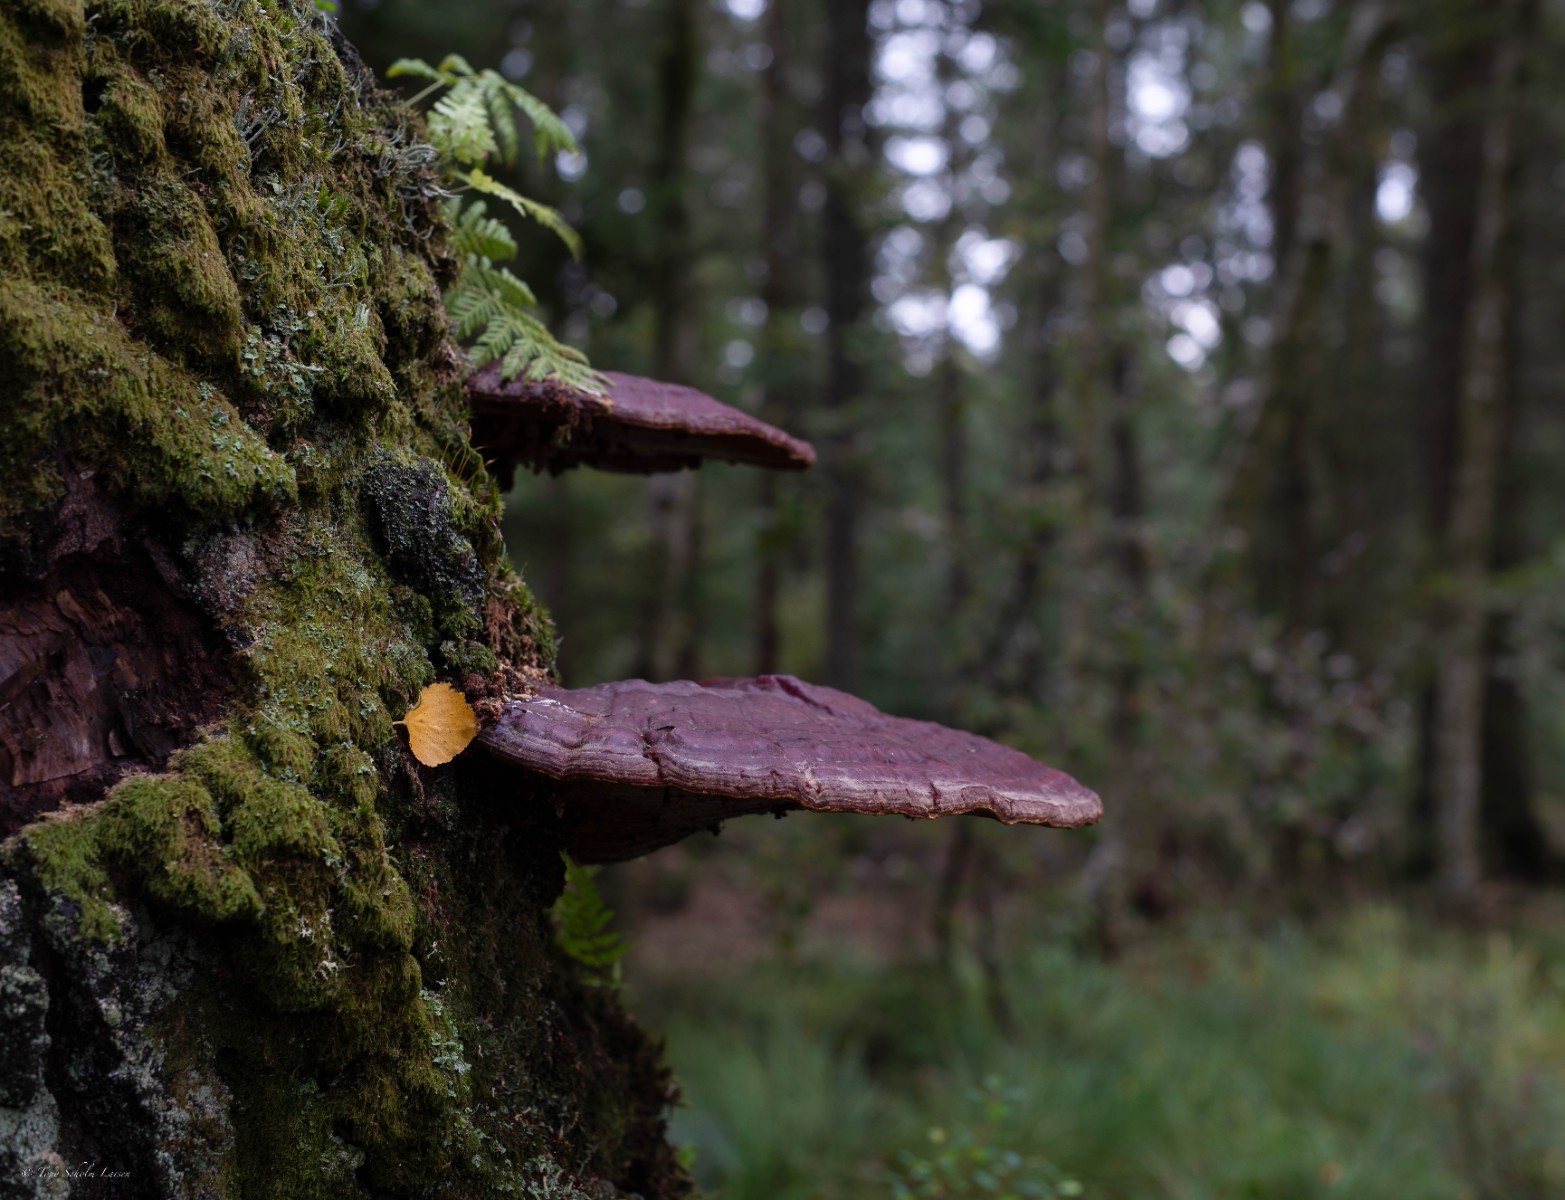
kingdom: Fungi
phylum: Basidiomycota
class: Agaricomycetes
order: Polyporales
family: Polyporaceae
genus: Ganoderma
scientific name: Ganoderma lucidum
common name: skinnende lakporesvamp
